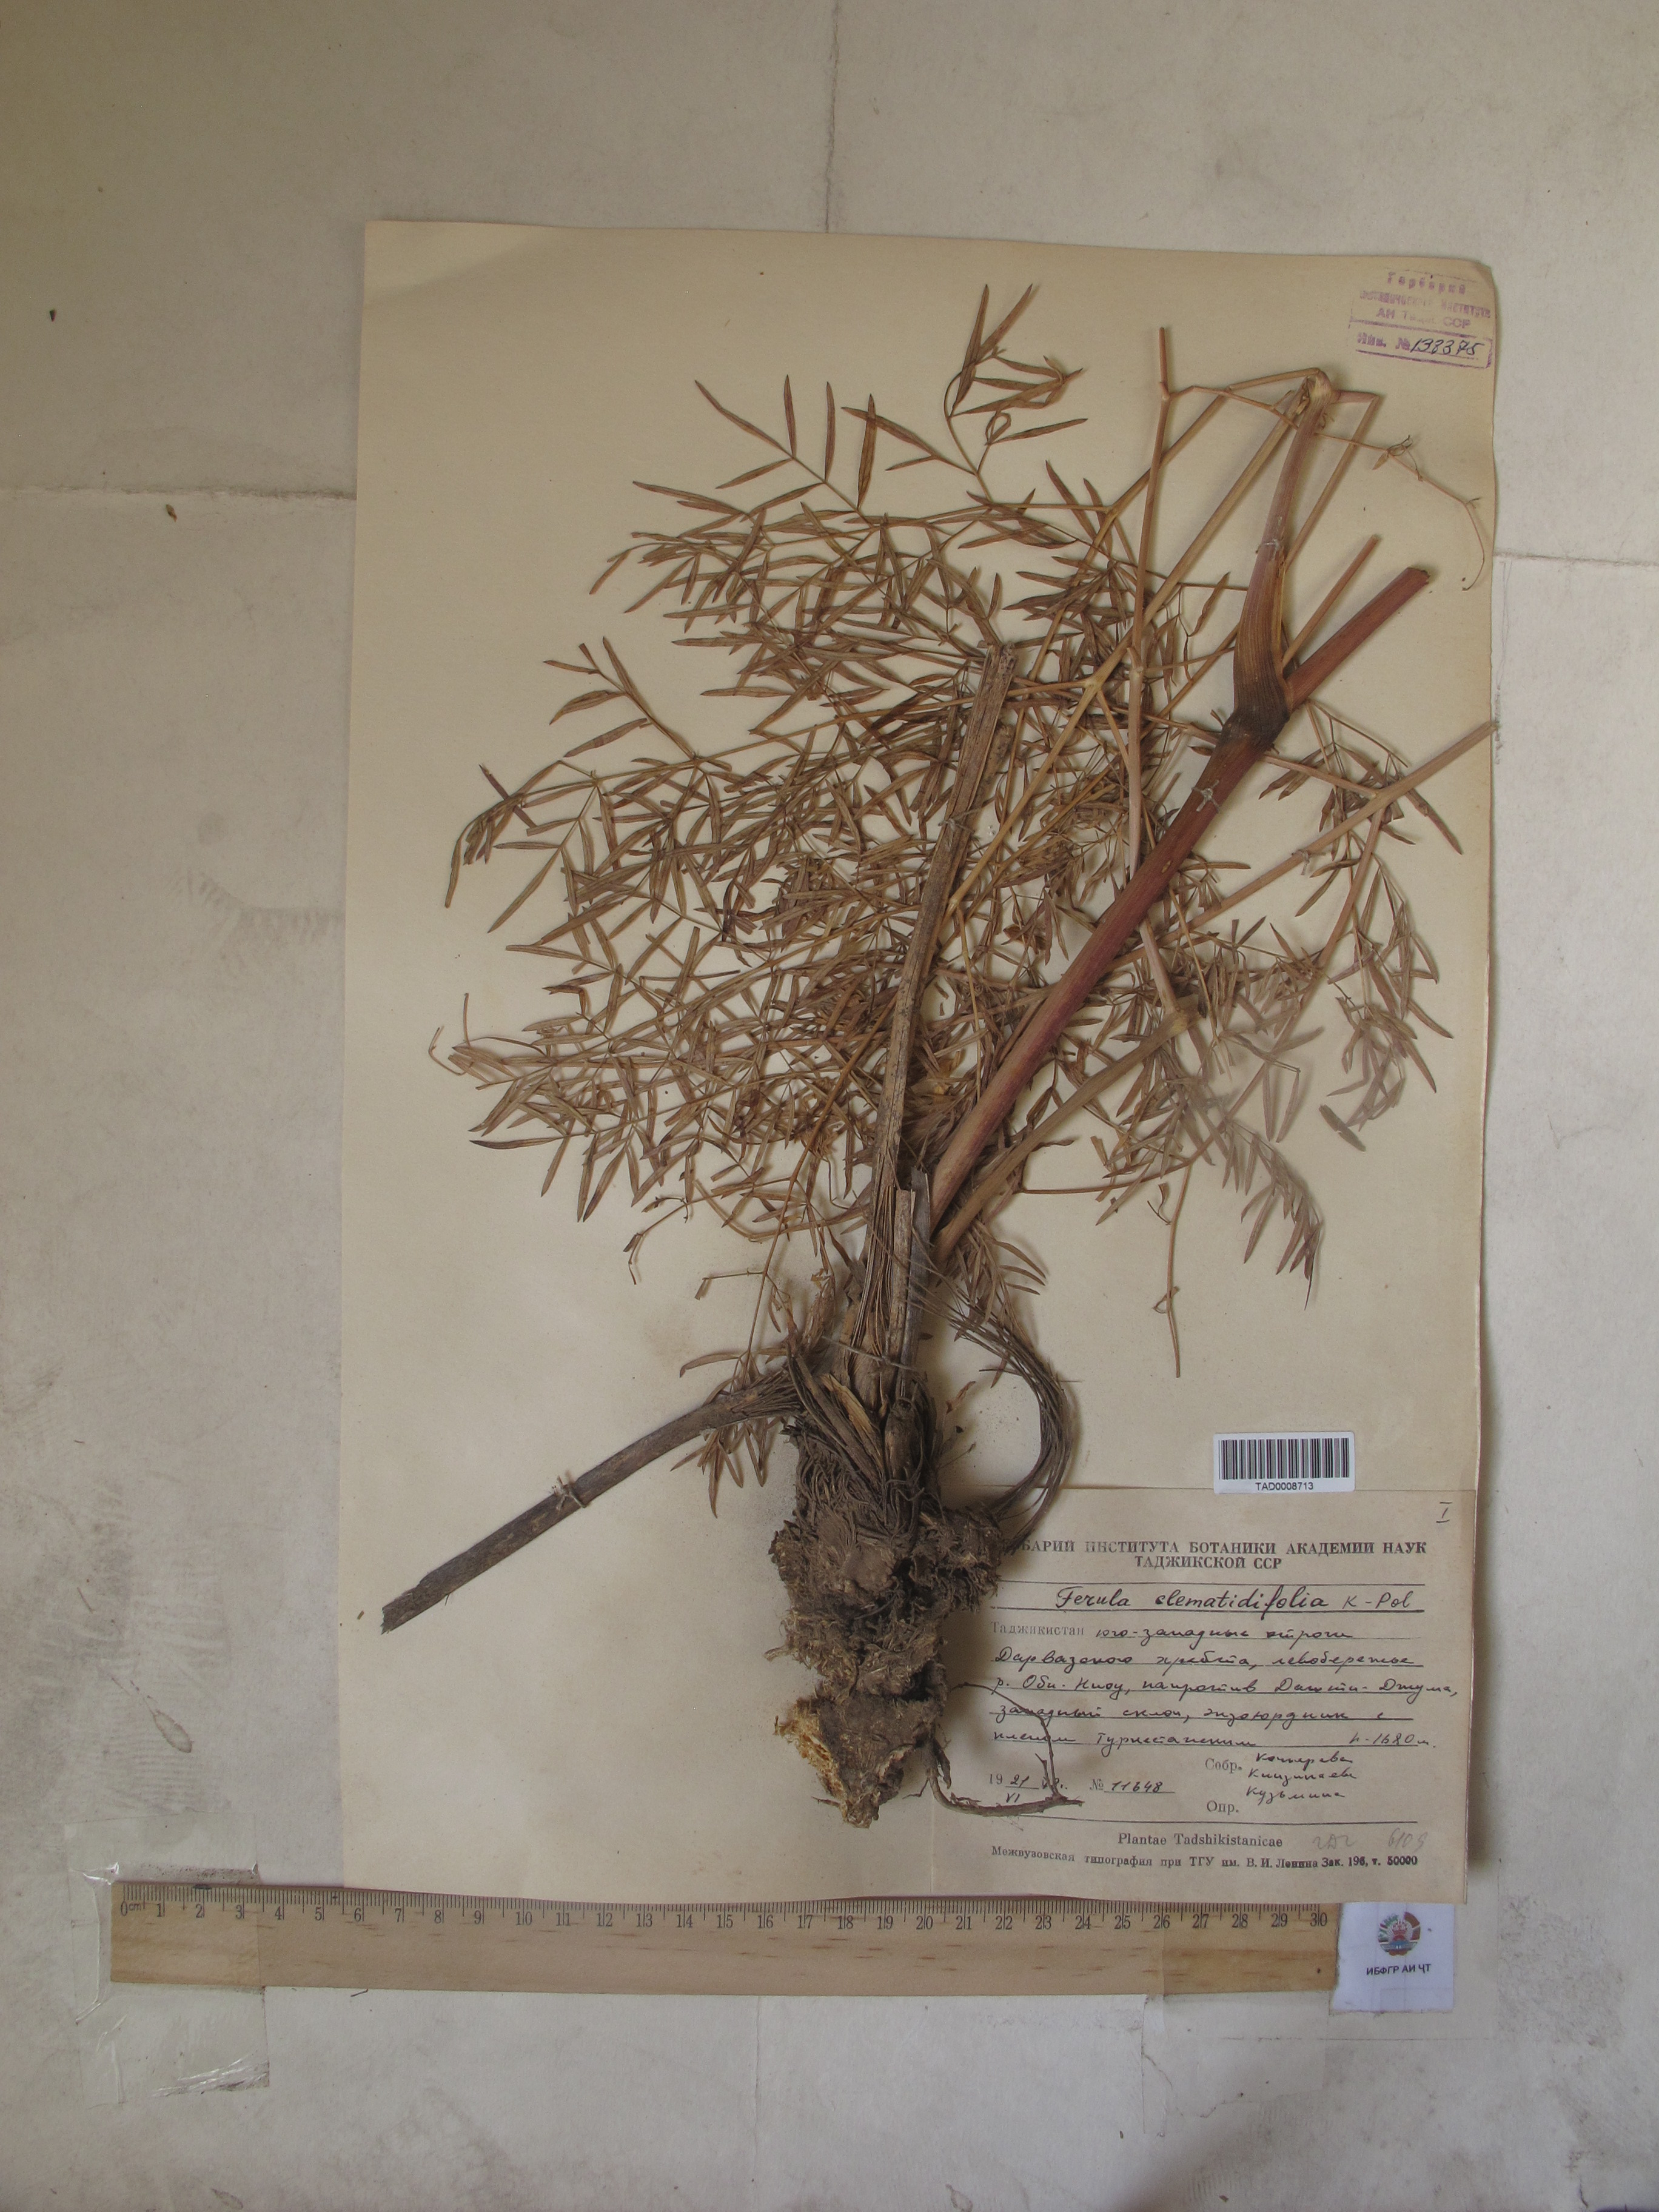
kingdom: Plantae
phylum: Tracheophyta
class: Magnoliopsida
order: Apiales
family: Apiaceae
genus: Ferula
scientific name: Ferula clematidifolia
